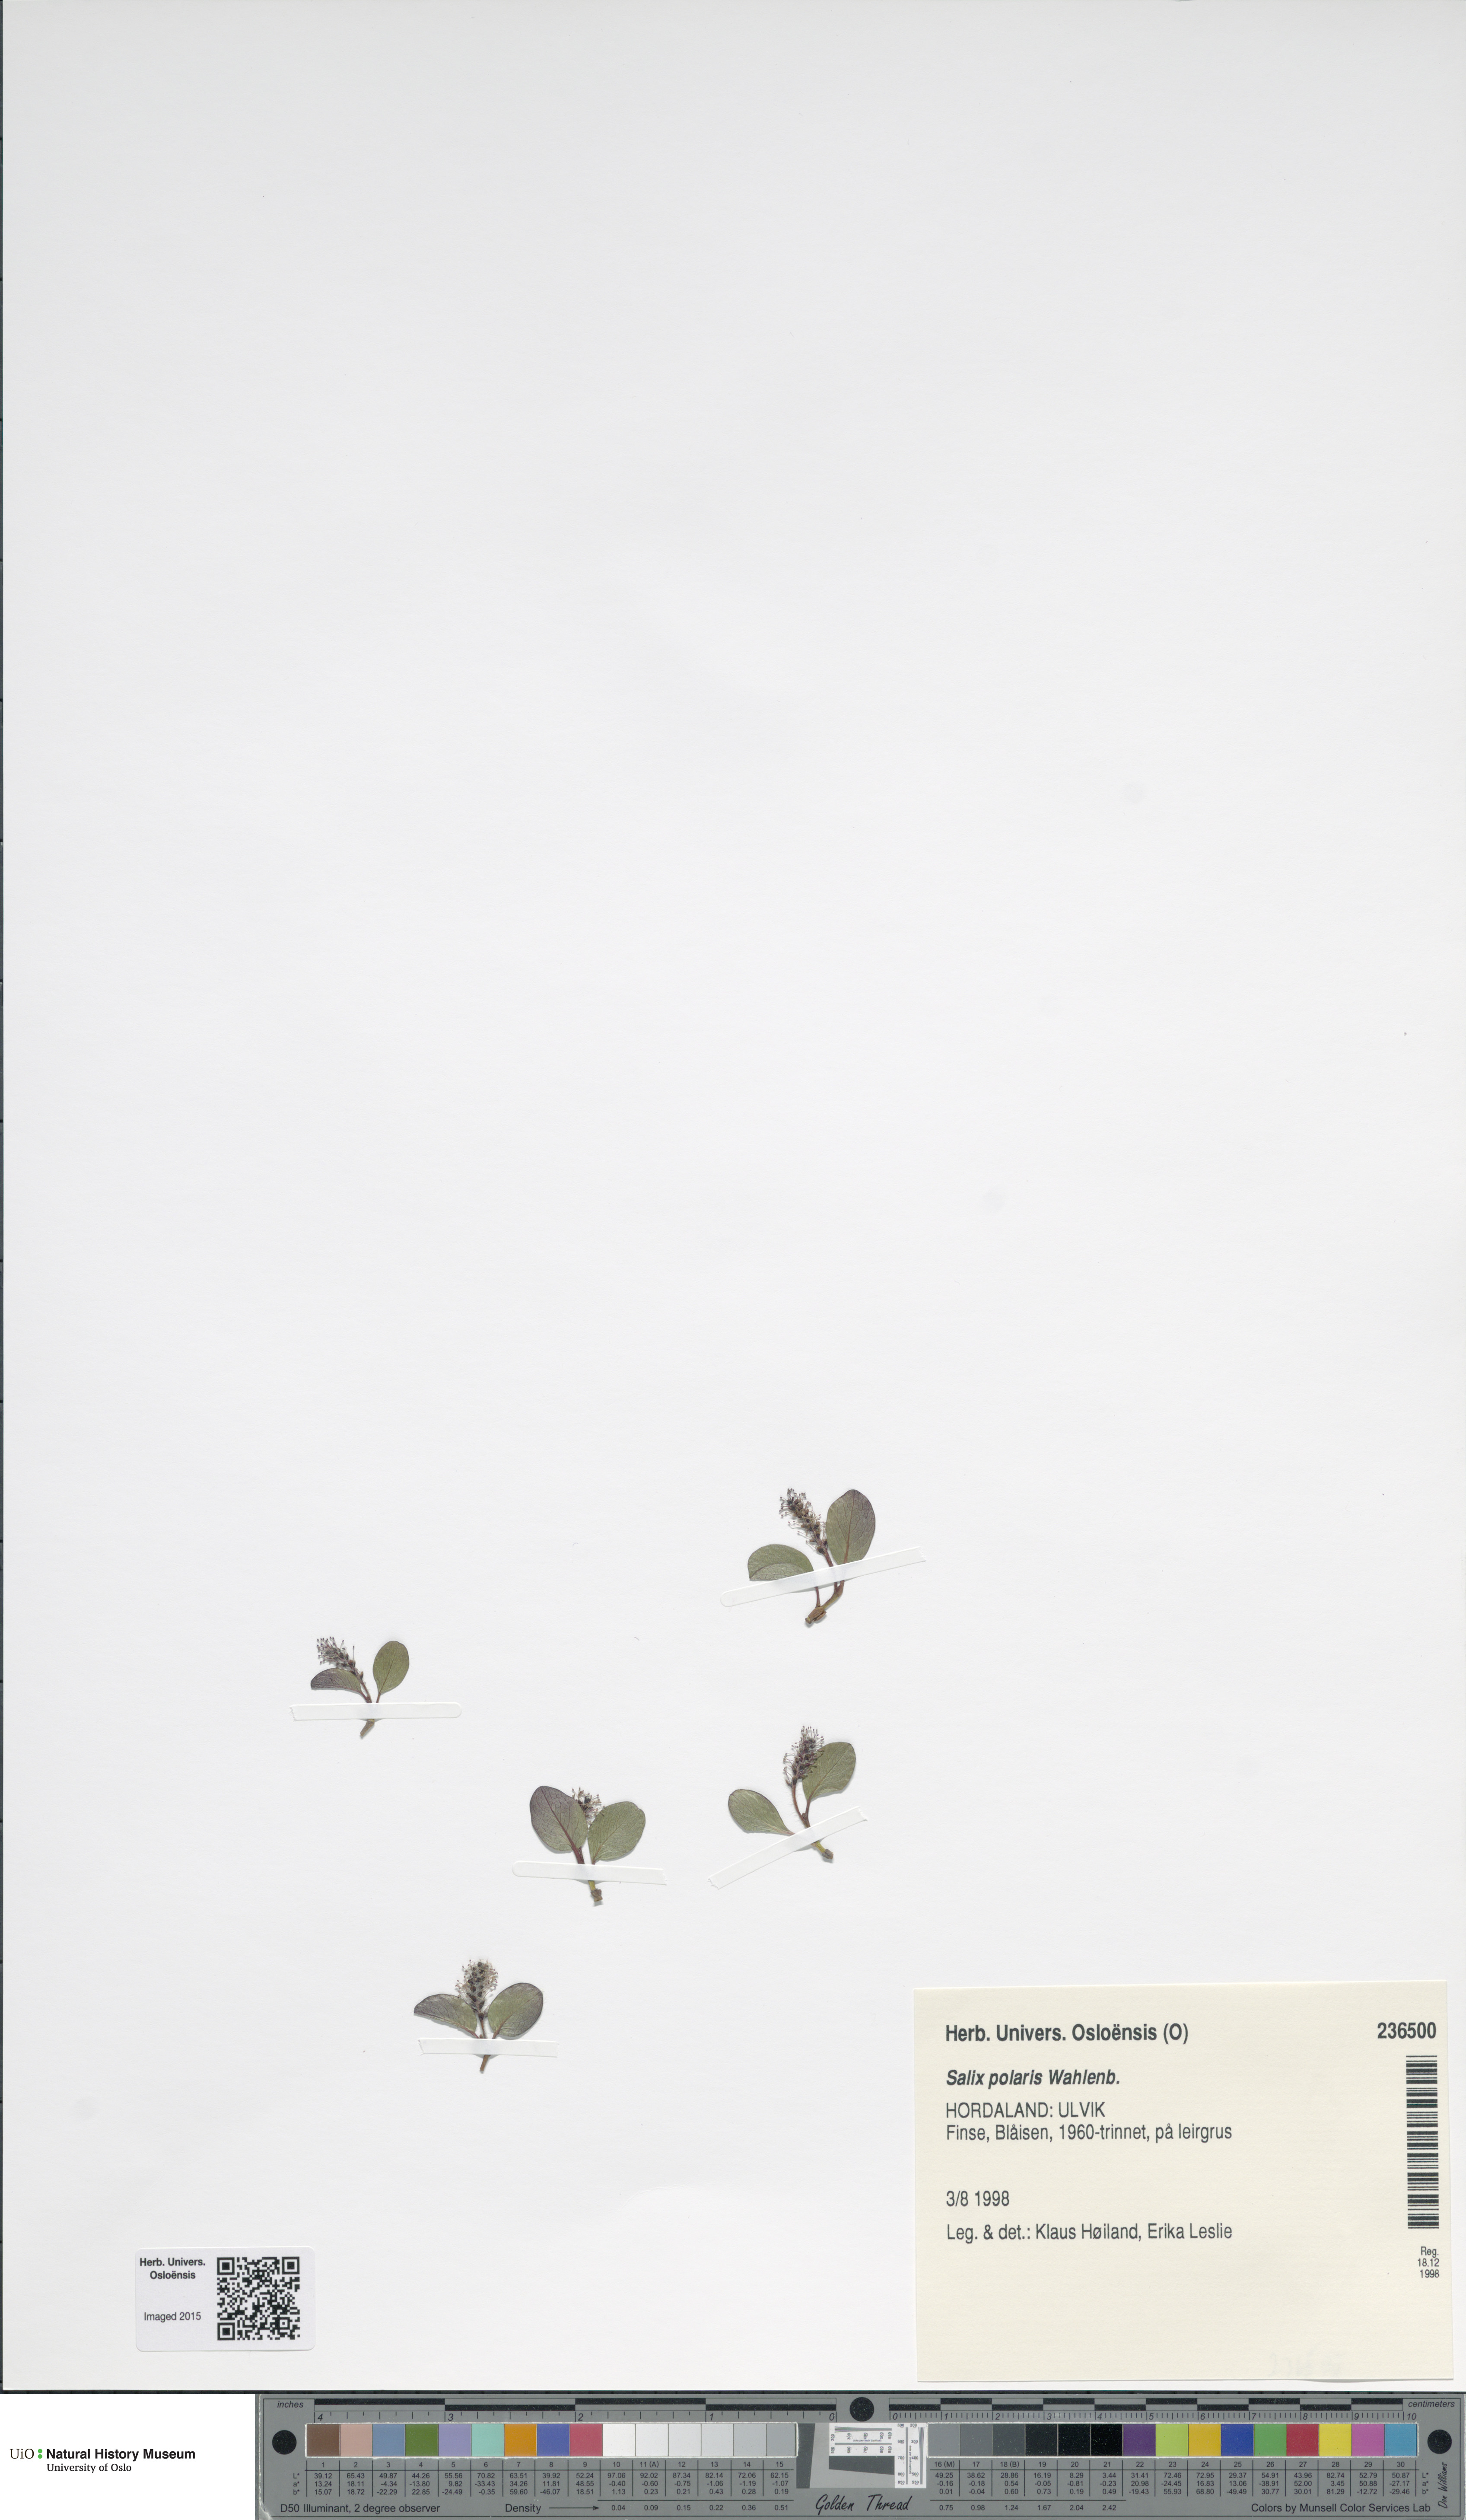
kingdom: Plantae
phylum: Tracheophyta
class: Magnoliopsida
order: Malpighiales
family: Salicaceae
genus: Salix
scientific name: Salix polaris
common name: Polar willow
